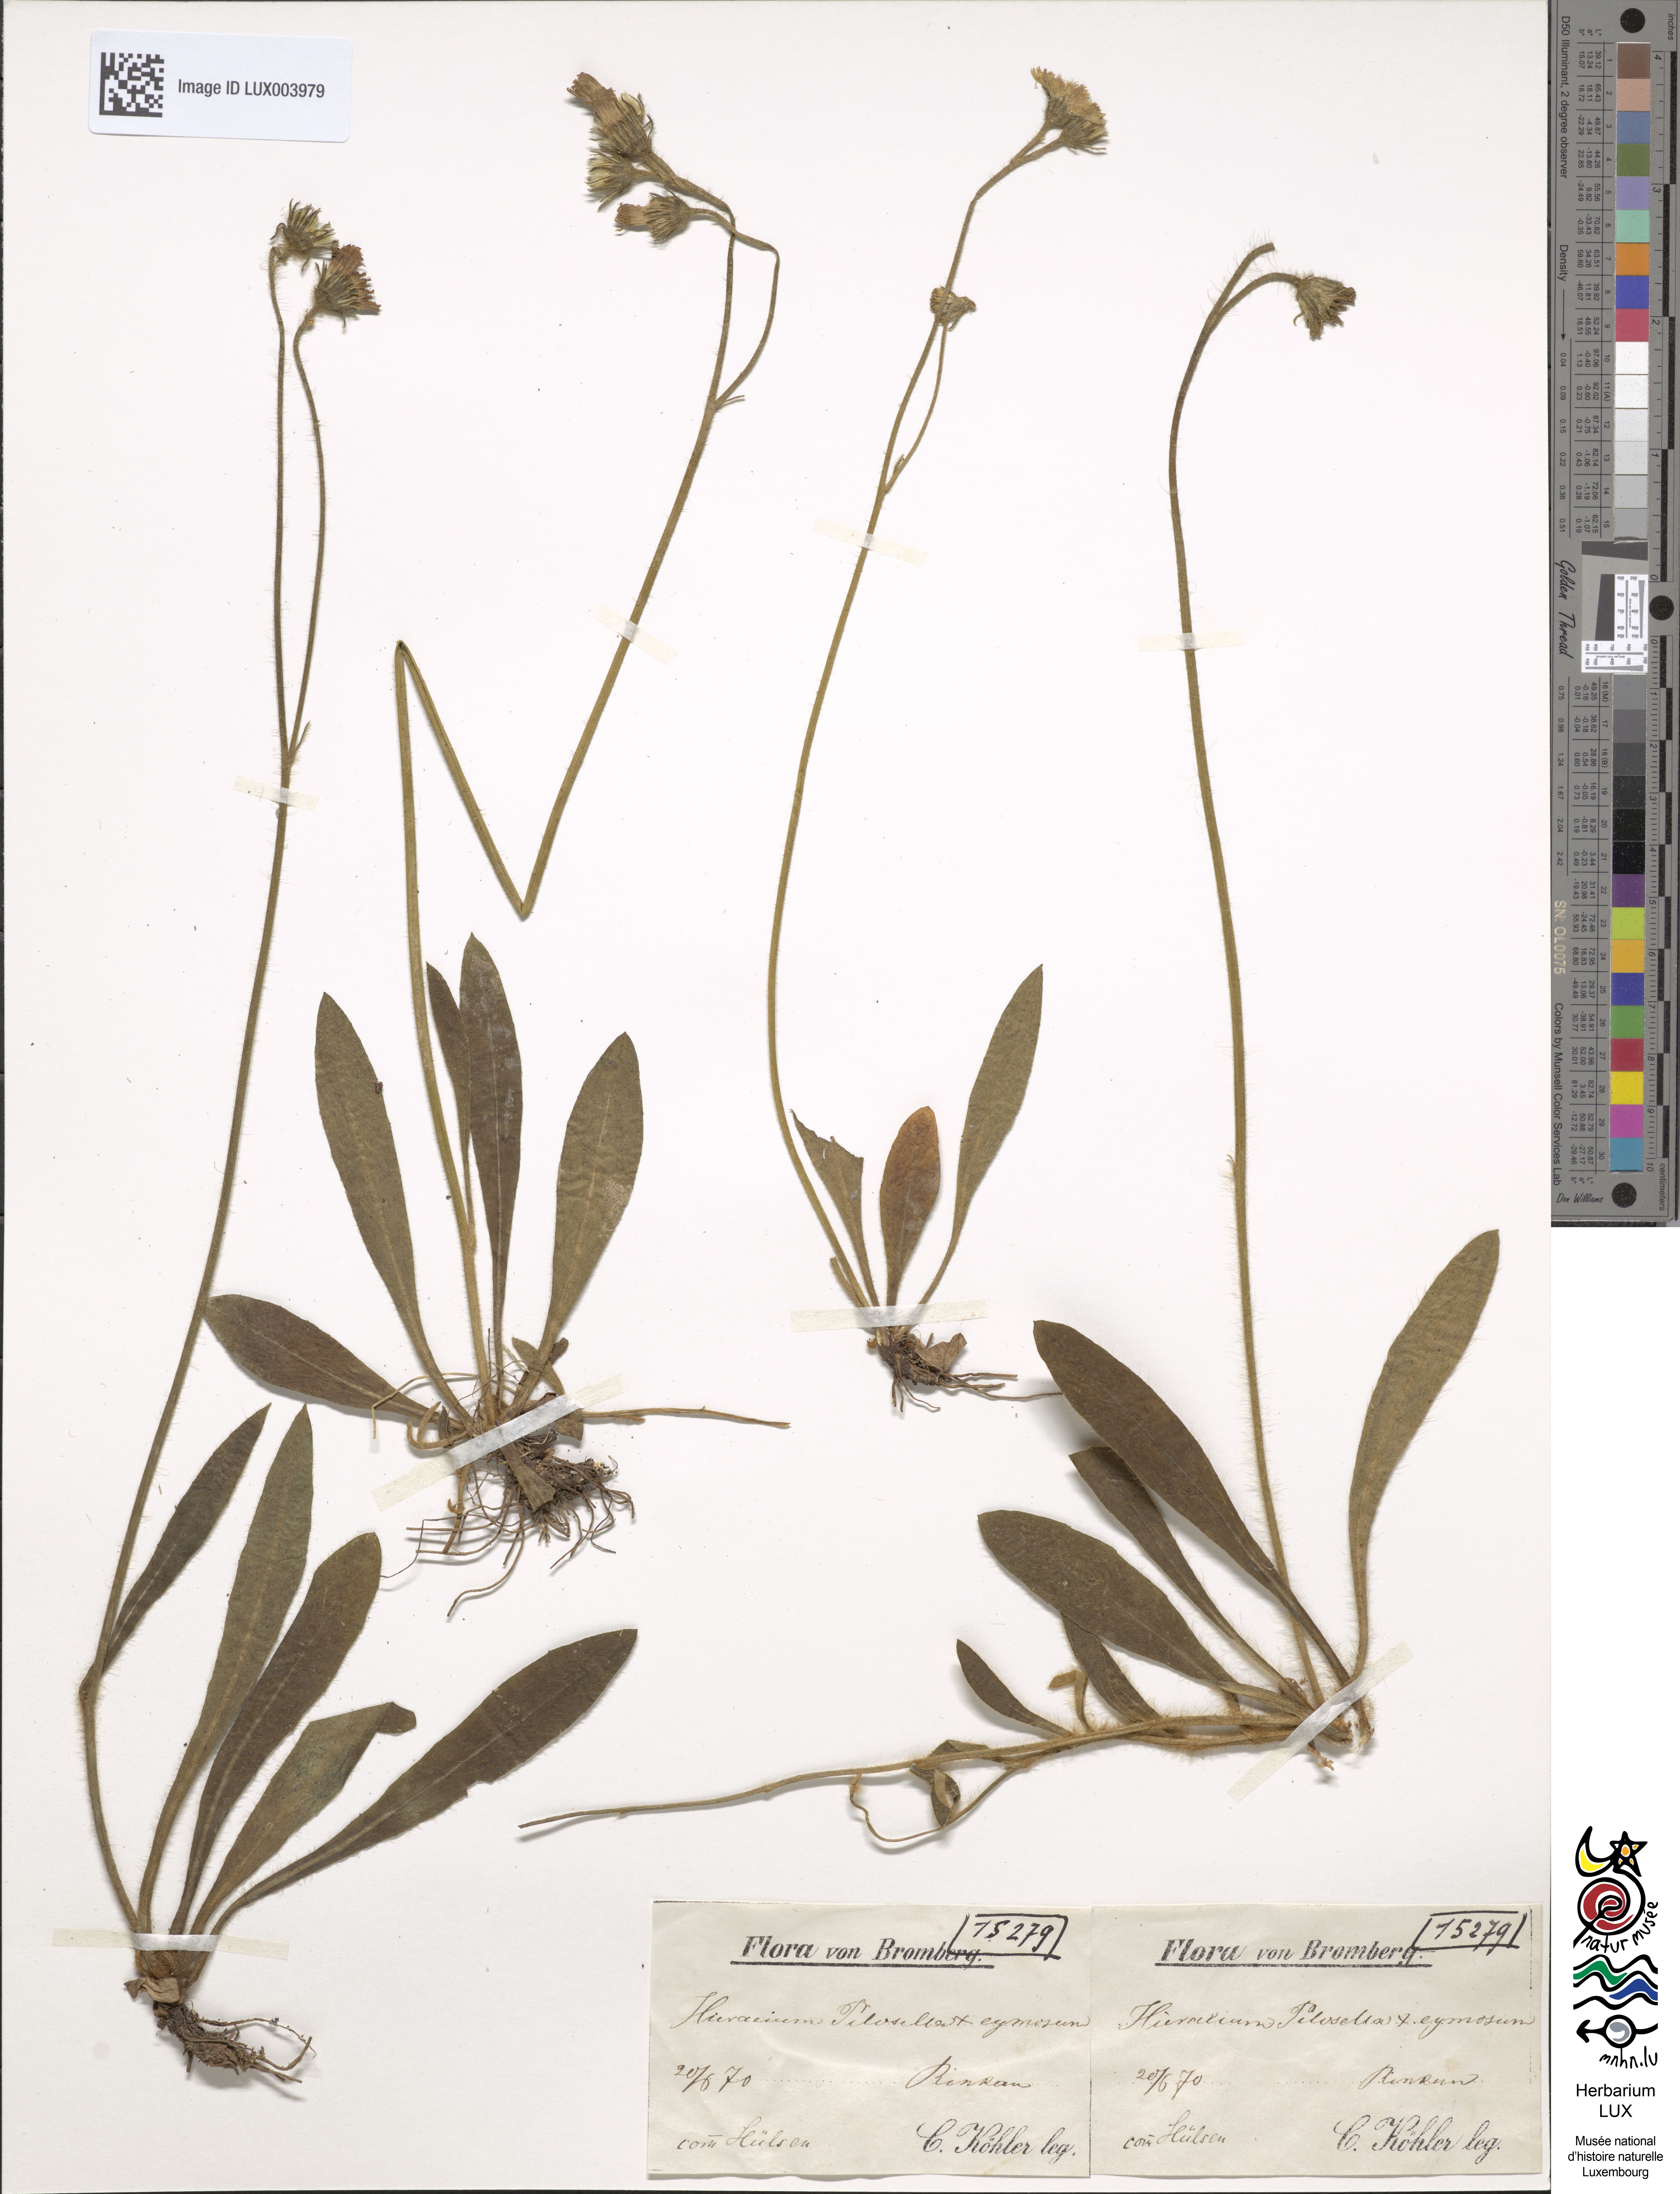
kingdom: Plantae
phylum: Tracheophyta
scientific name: Tracheophyta
